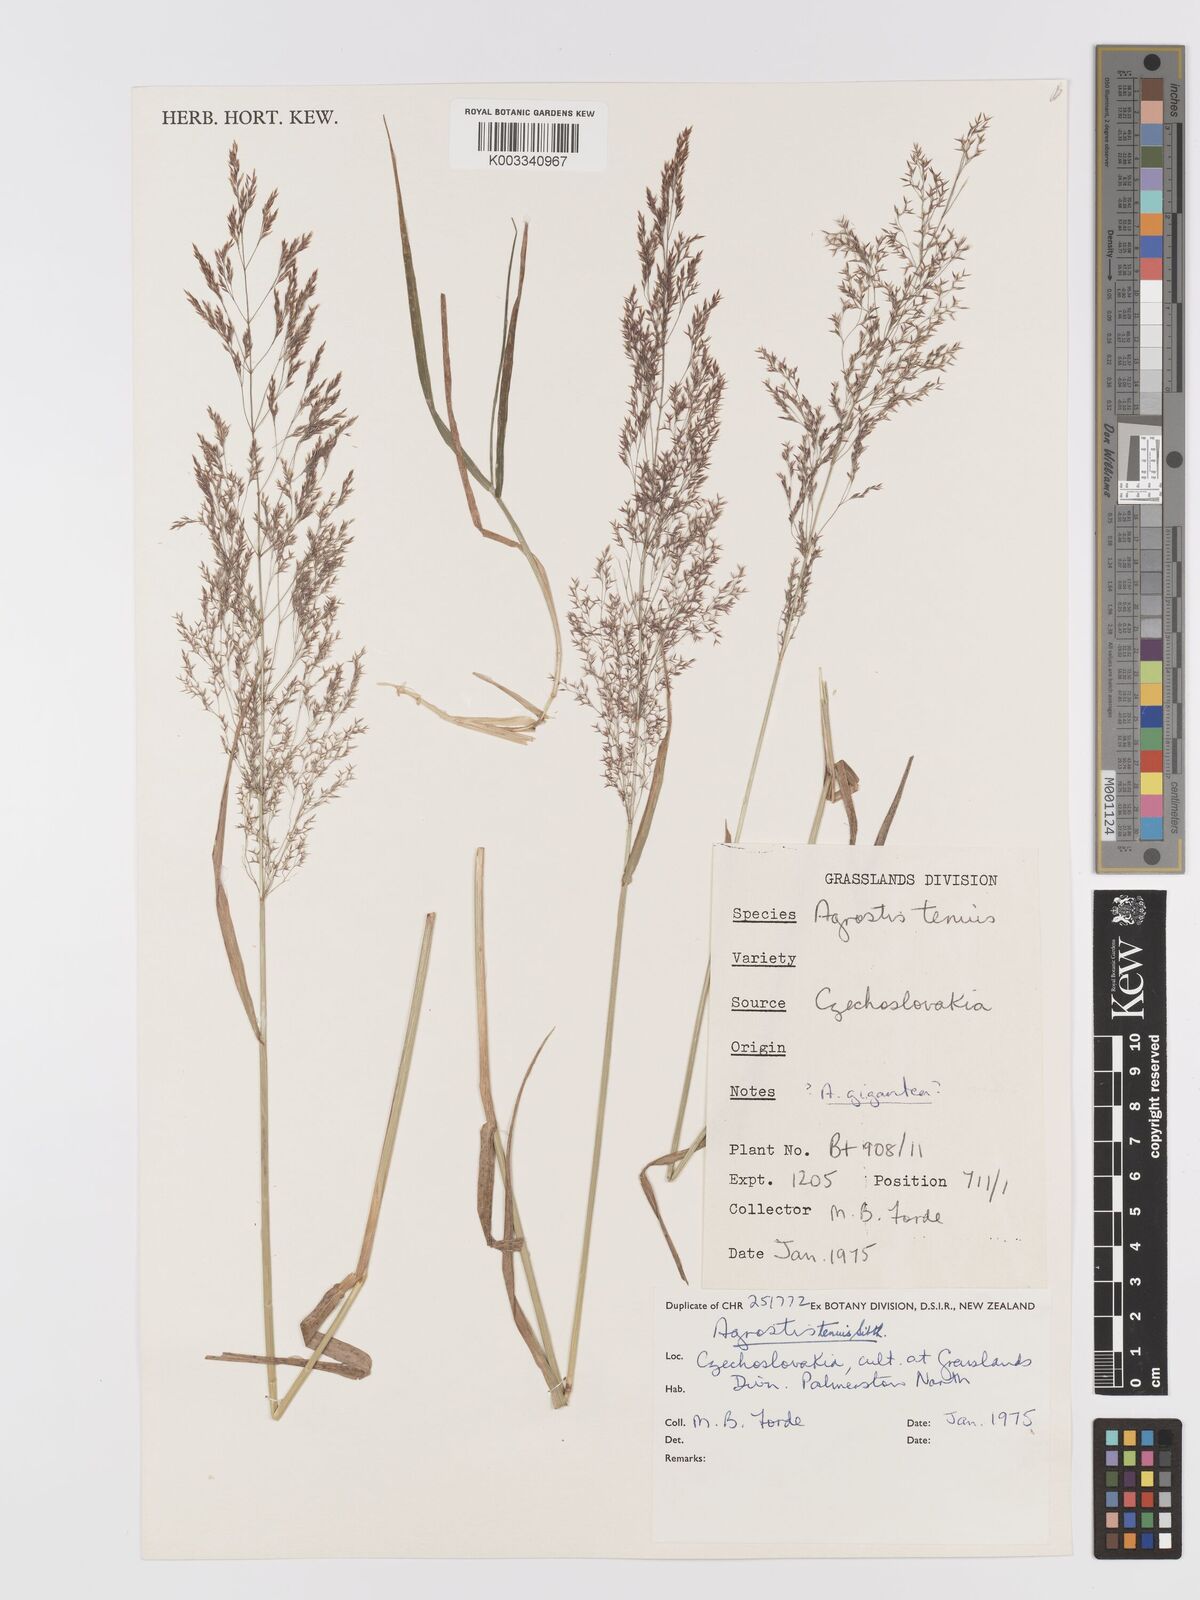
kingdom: Plantae
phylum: Tracheophyta
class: Liliopsida
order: Poales
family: Poaceae
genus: Agrostis
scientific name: Agrostis capillaris
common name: Colonial bentgrass
